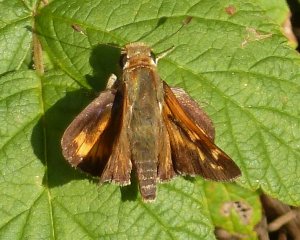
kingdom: Animalia
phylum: Arthropoda
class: Insecta
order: Lepidoptera
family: Hesperiidae
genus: Hesperia
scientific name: Hesperia leonardus
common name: Leonard's Skipper
